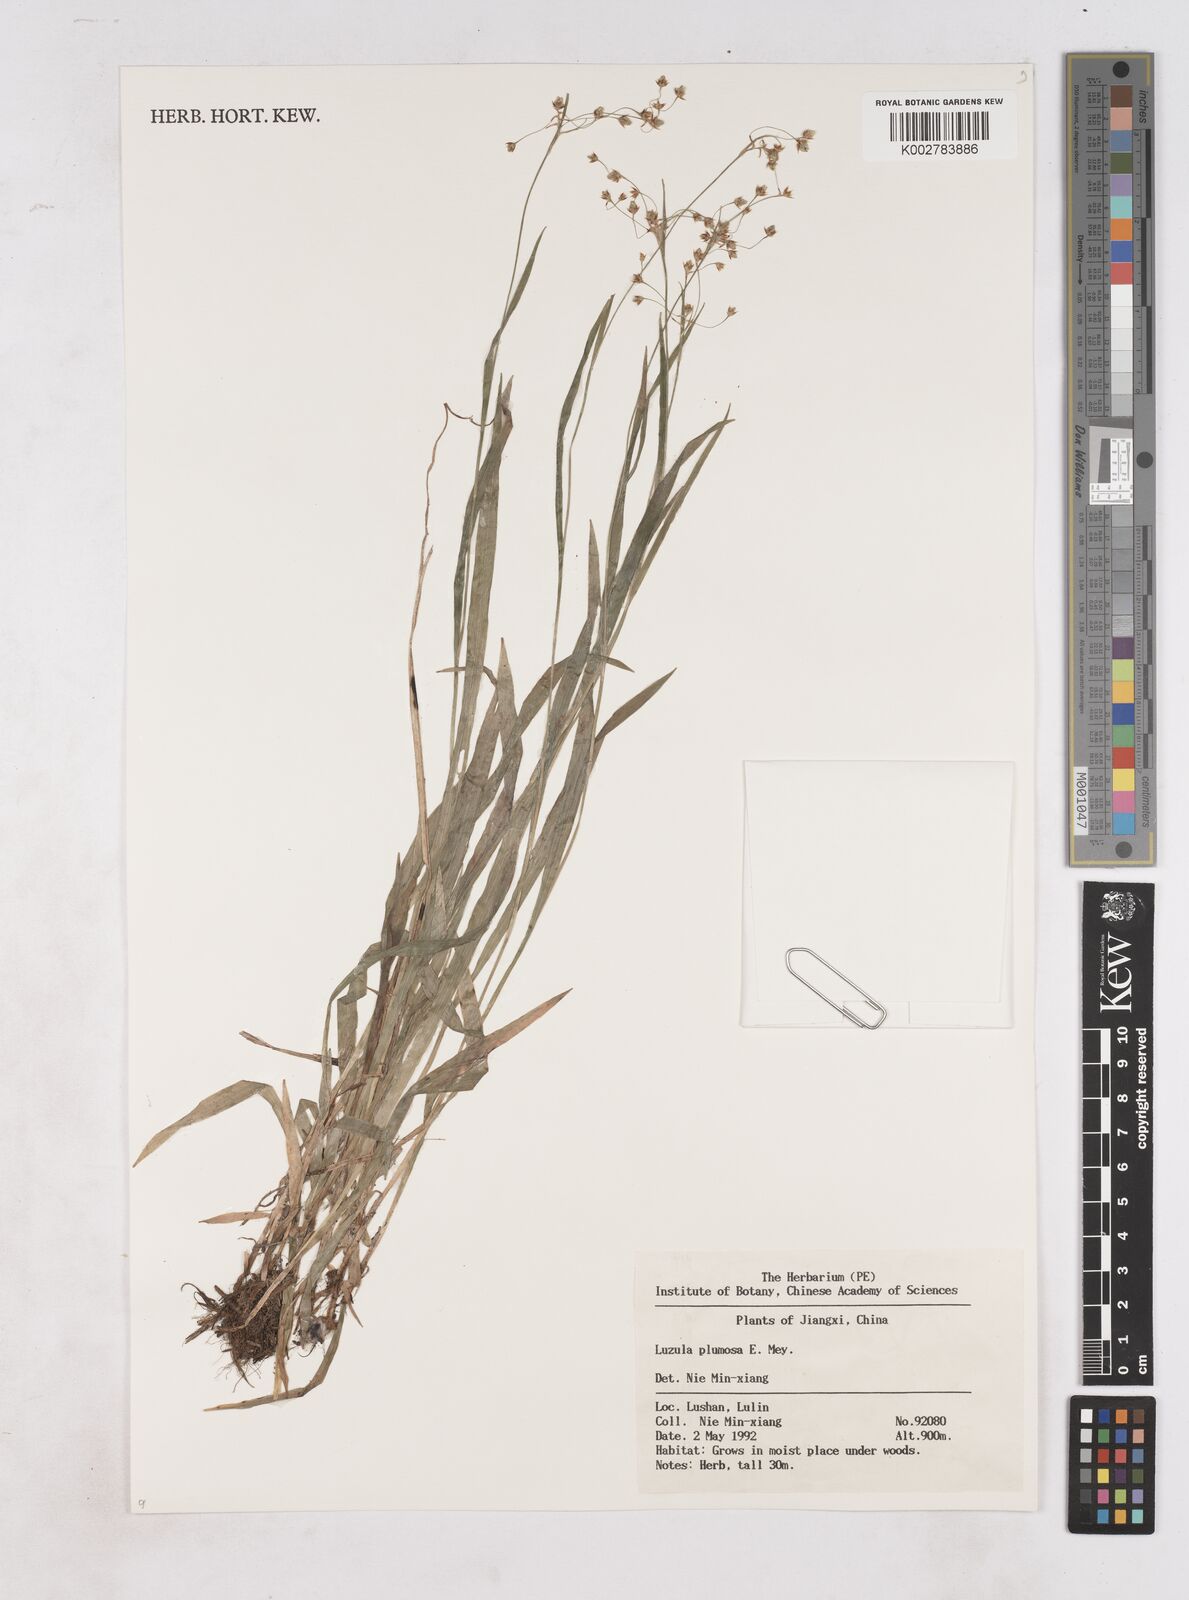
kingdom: Plantae
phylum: Tracheophyta
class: Liliopsida
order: Poales
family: Juncaceae
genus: Luzula
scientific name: Luzula plumosa
